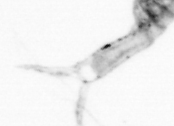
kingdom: Animalia
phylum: Arthropoda
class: Copepoda
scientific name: Copepoda
